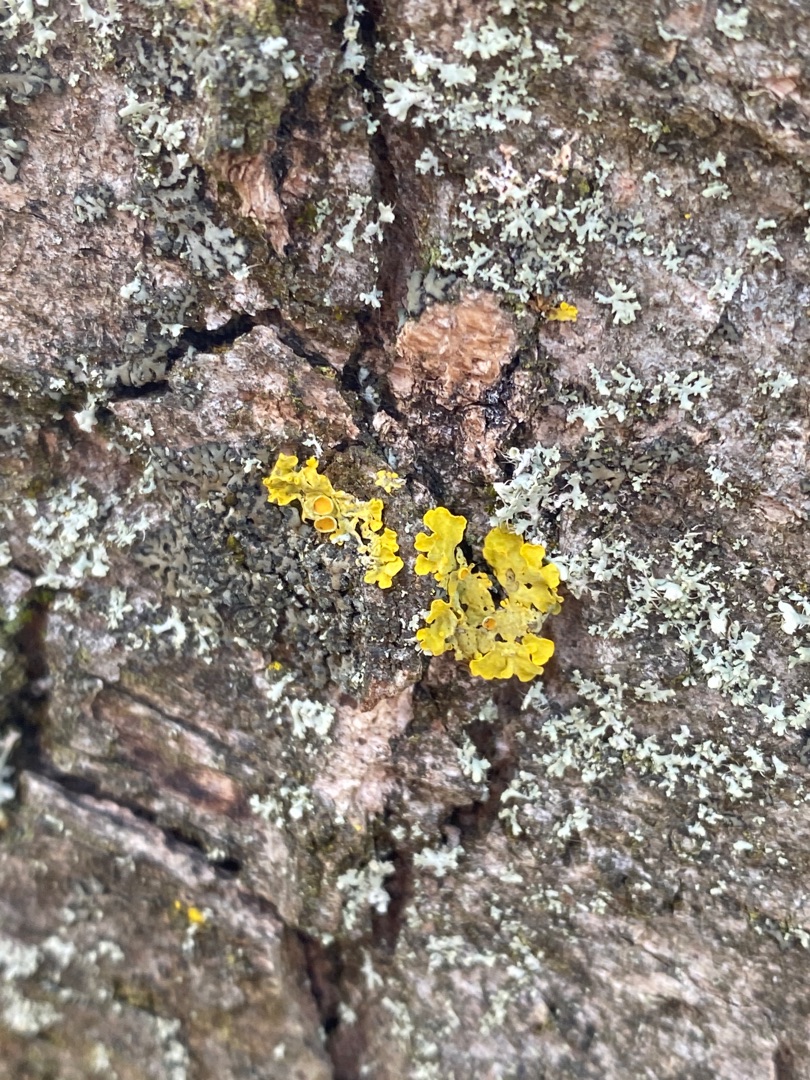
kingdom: Fungi
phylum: Ascomycota
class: Lecanoromycetes
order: Teloschistales
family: Teloschistaceae
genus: Xanthoria
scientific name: Xanthoria parietina
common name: Almindelig væggelav
